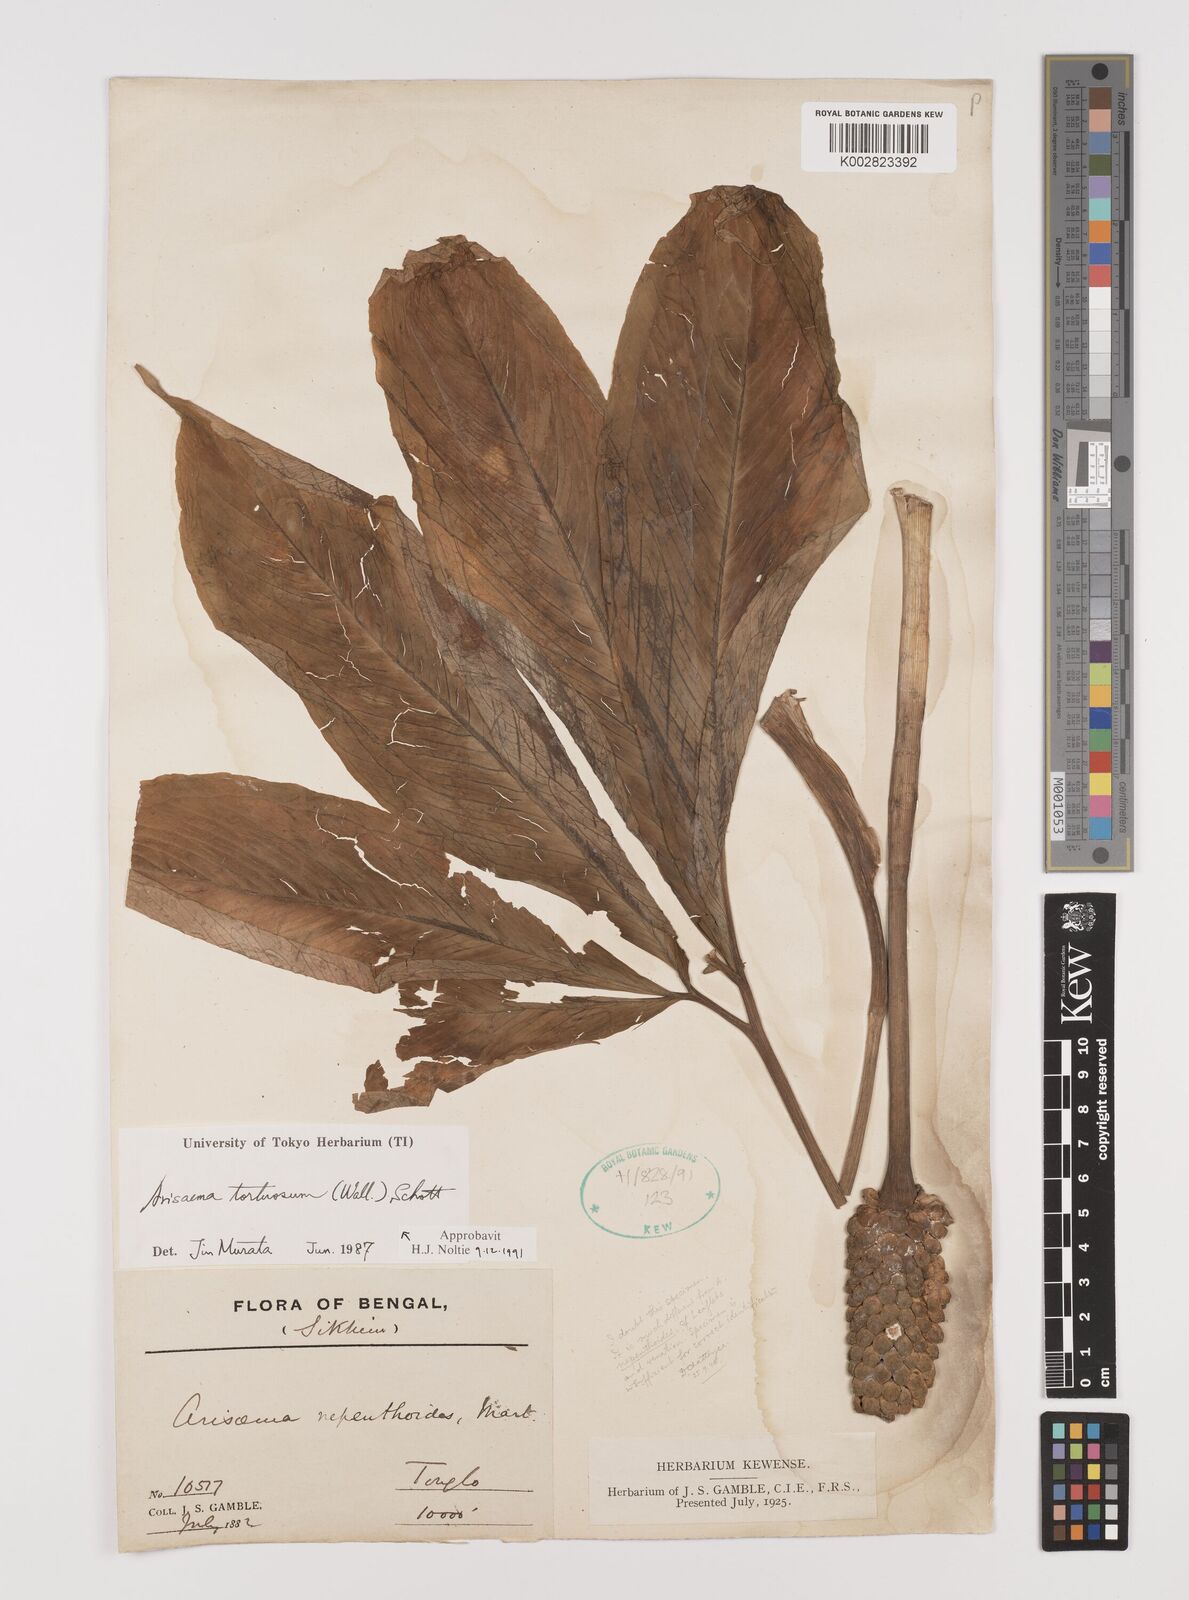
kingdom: Plantae
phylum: Tracheophyta
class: Liliopsida
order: Alismatales
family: Araceae
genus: Arisaema
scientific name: Arisaema tortuosum
